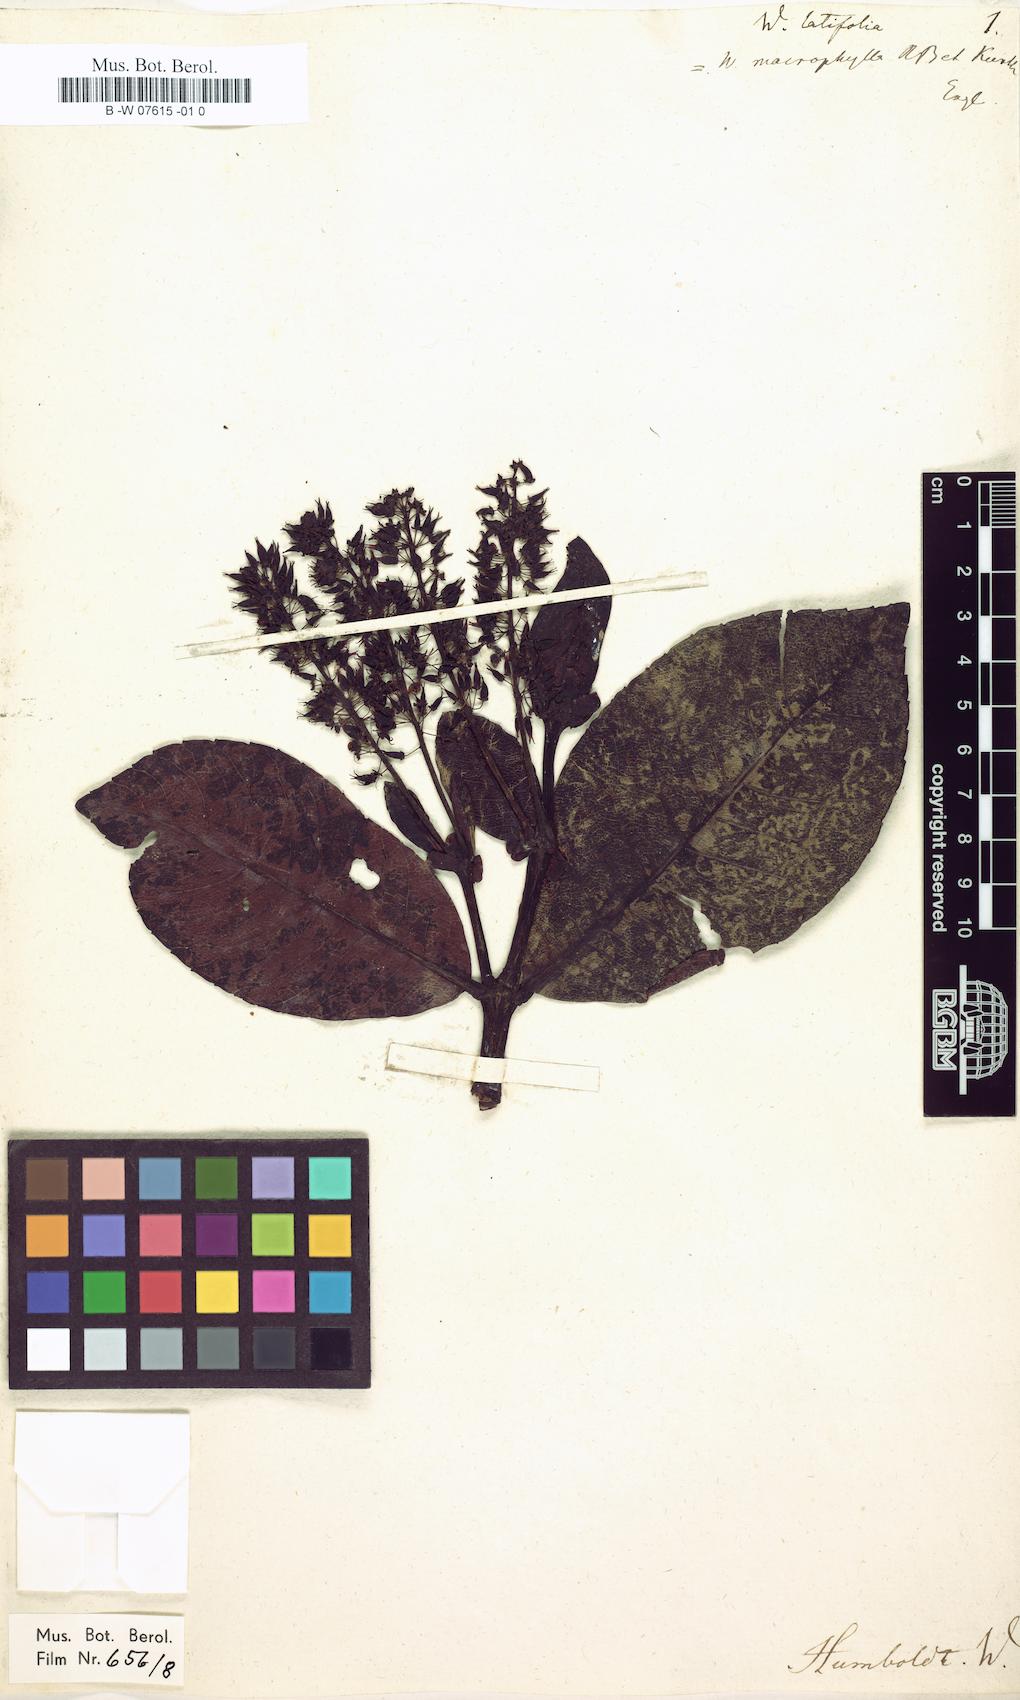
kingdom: Plantae
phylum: Tracheophyta
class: Magnoliopsida
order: Oxalidales
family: Cunoniaceae
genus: Weinmannia
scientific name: Weinmannia latifolia
